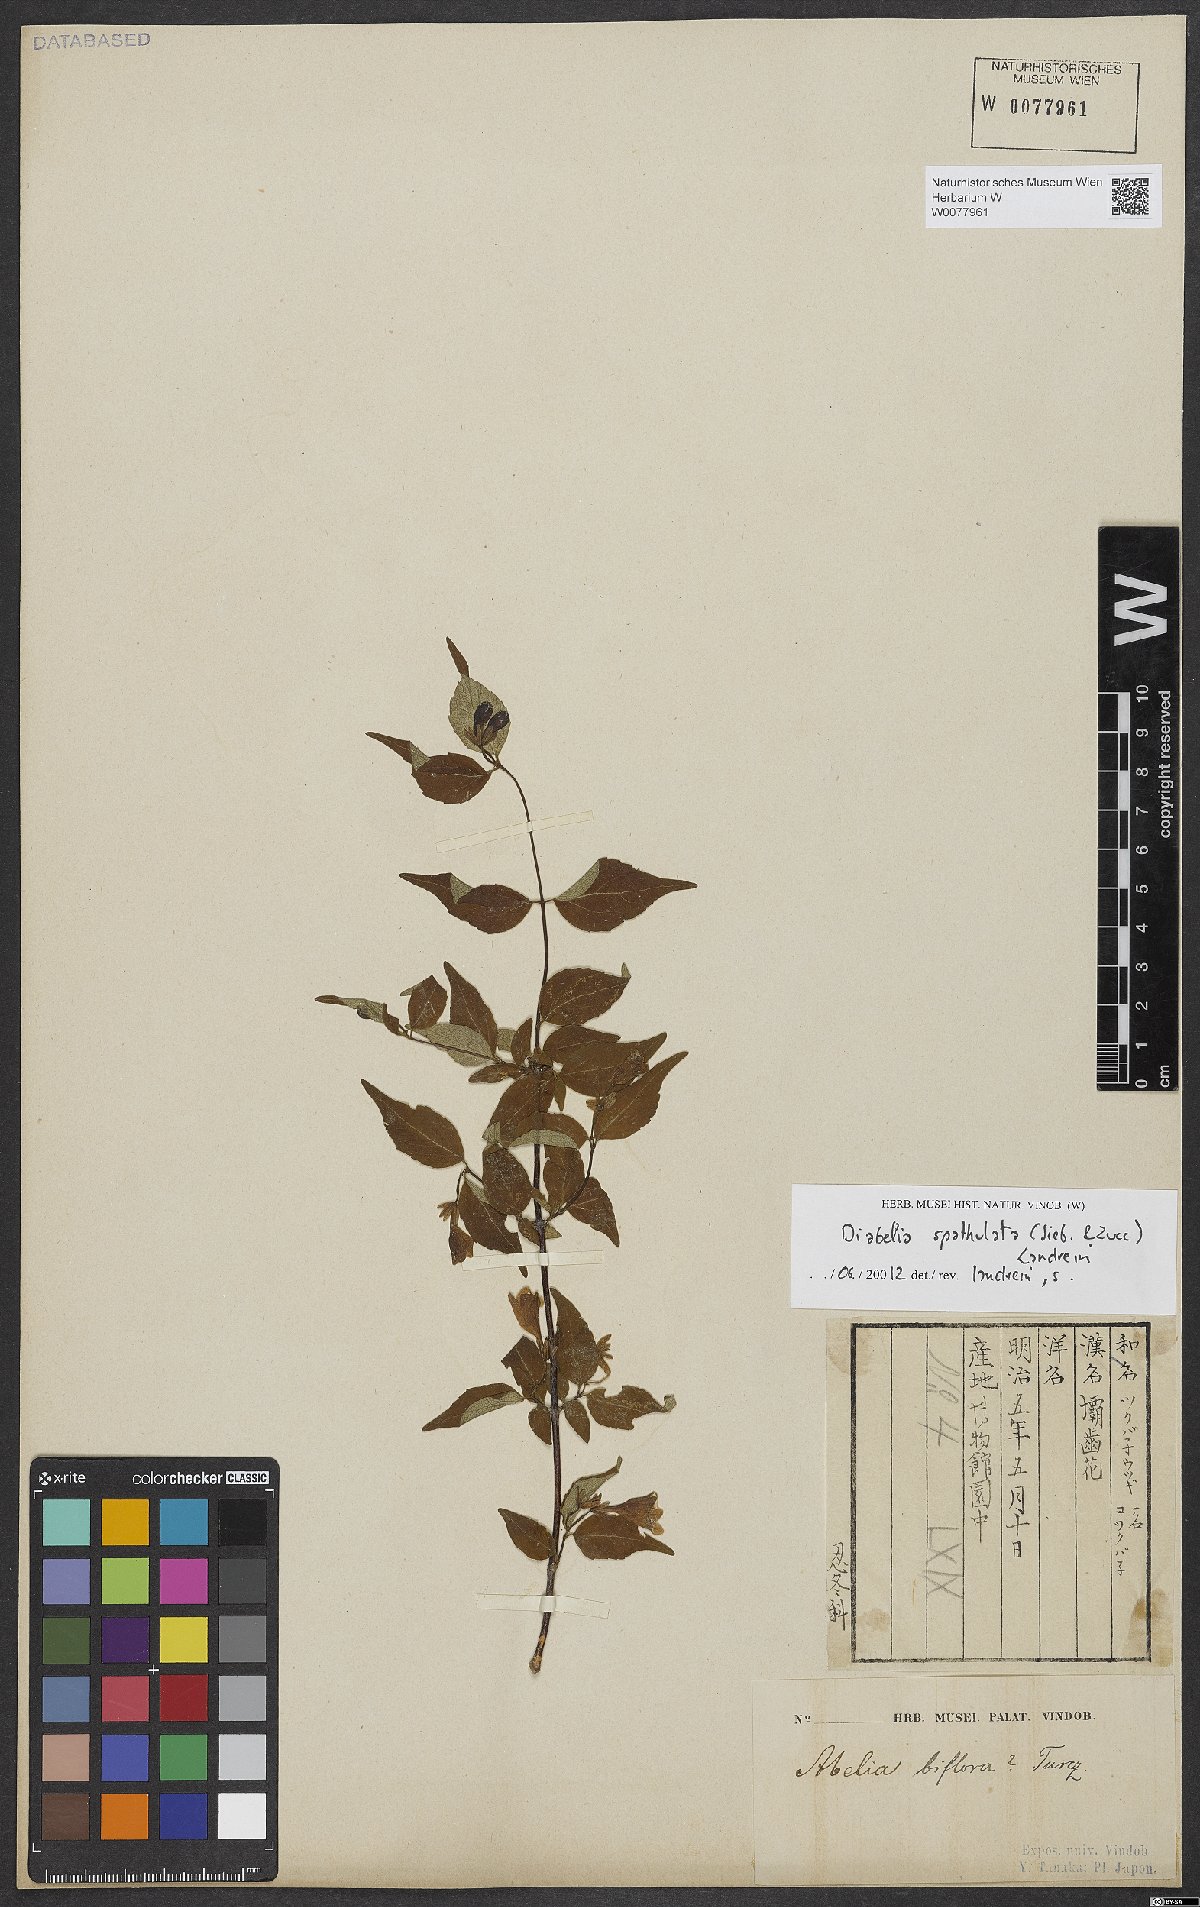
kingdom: Plantae
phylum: Tracheophyta
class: Magnoliopsida
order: Dipsacales
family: Caprifoliaceae
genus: Diabelia
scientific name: Diabelia spathulata
